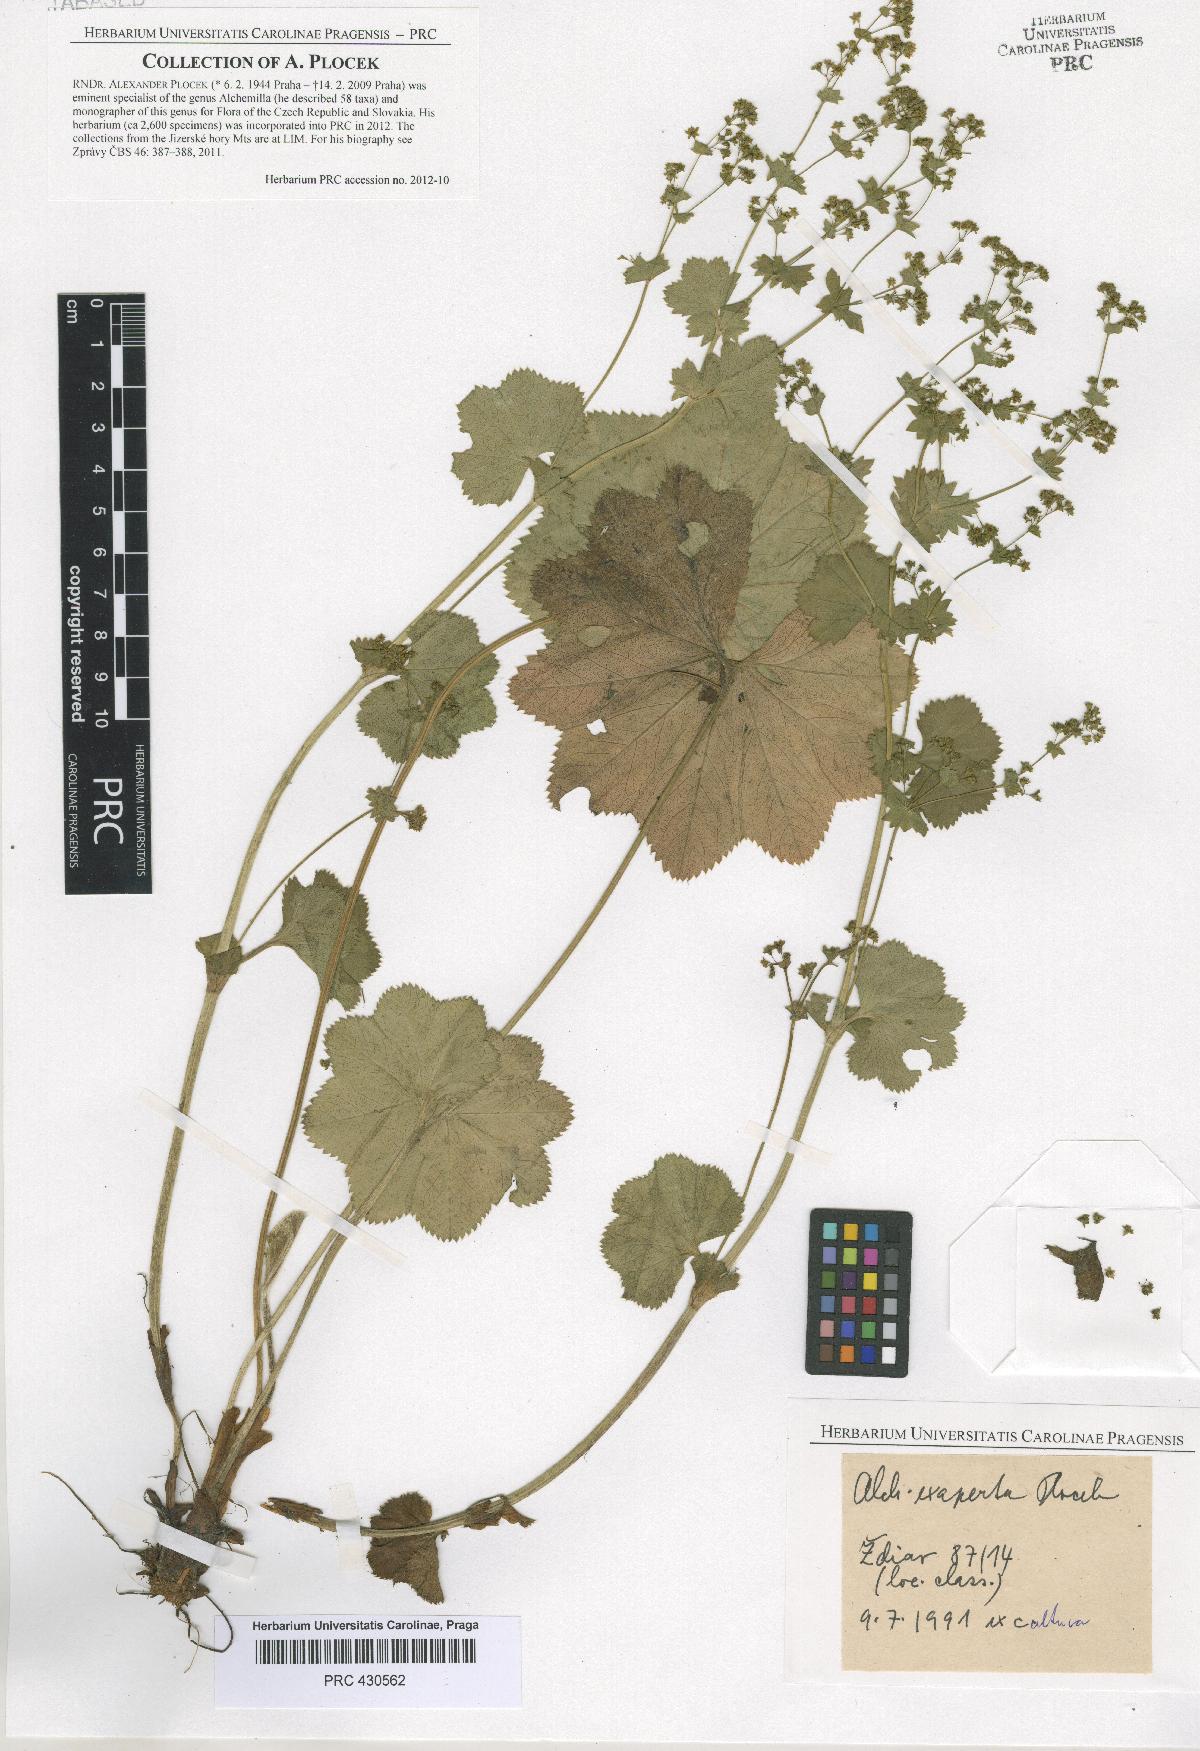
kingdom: Plantae
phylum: Tracheophyta
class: Magnoliopsida
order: Rosales
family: Rosaceae
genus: Alchemilla
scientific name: Alchemilla exaperta
